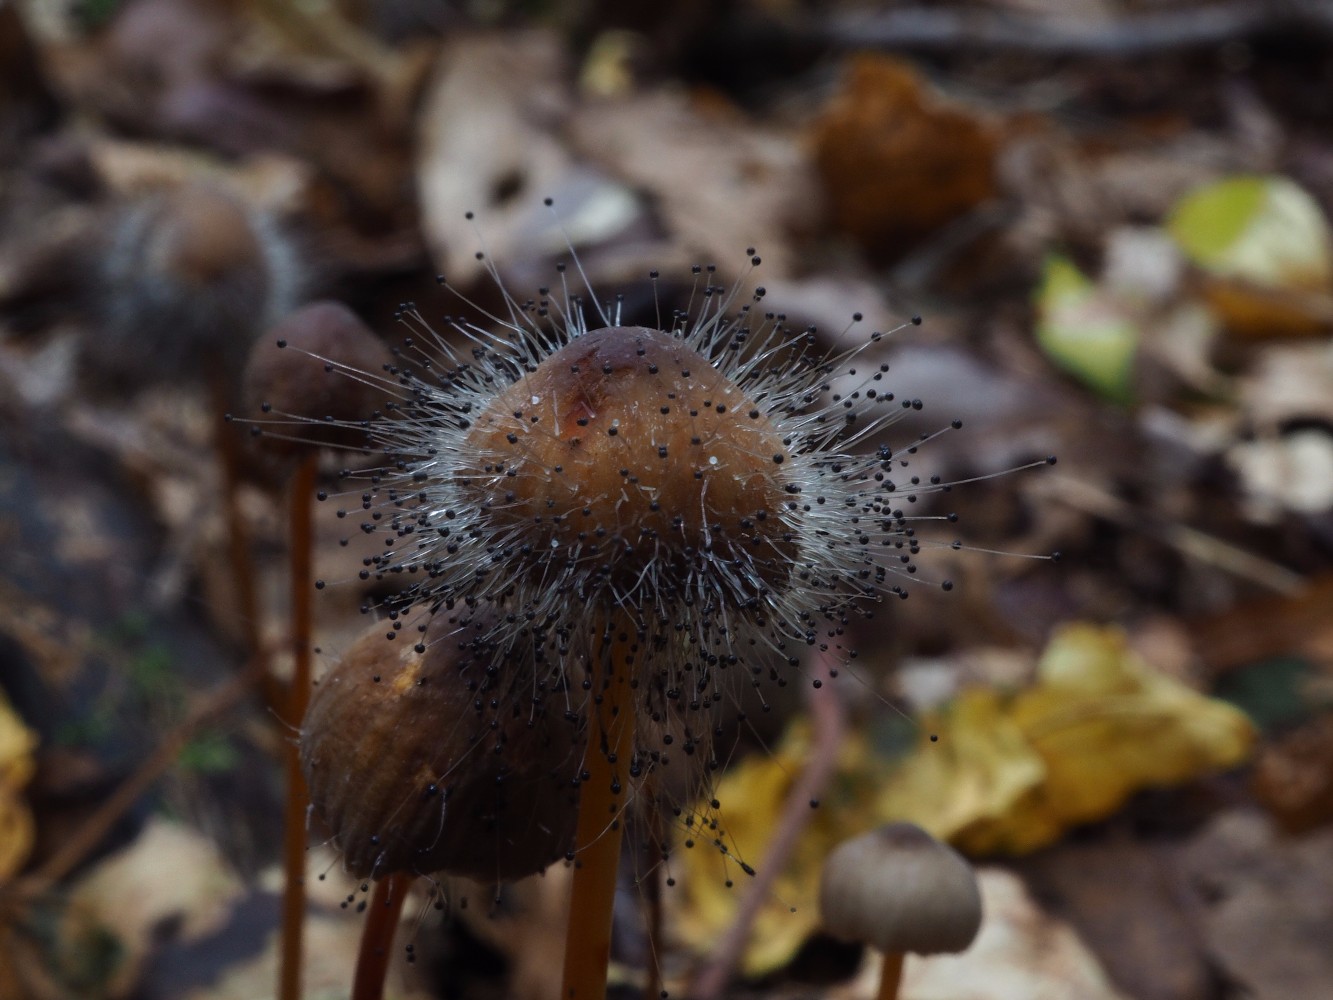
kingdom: Fungi
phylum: Mucoromycota
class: Mucoromycetes
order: Mucorales
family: Phycomycetaceae
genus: Spinellus
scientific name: Spinellus fusiger
